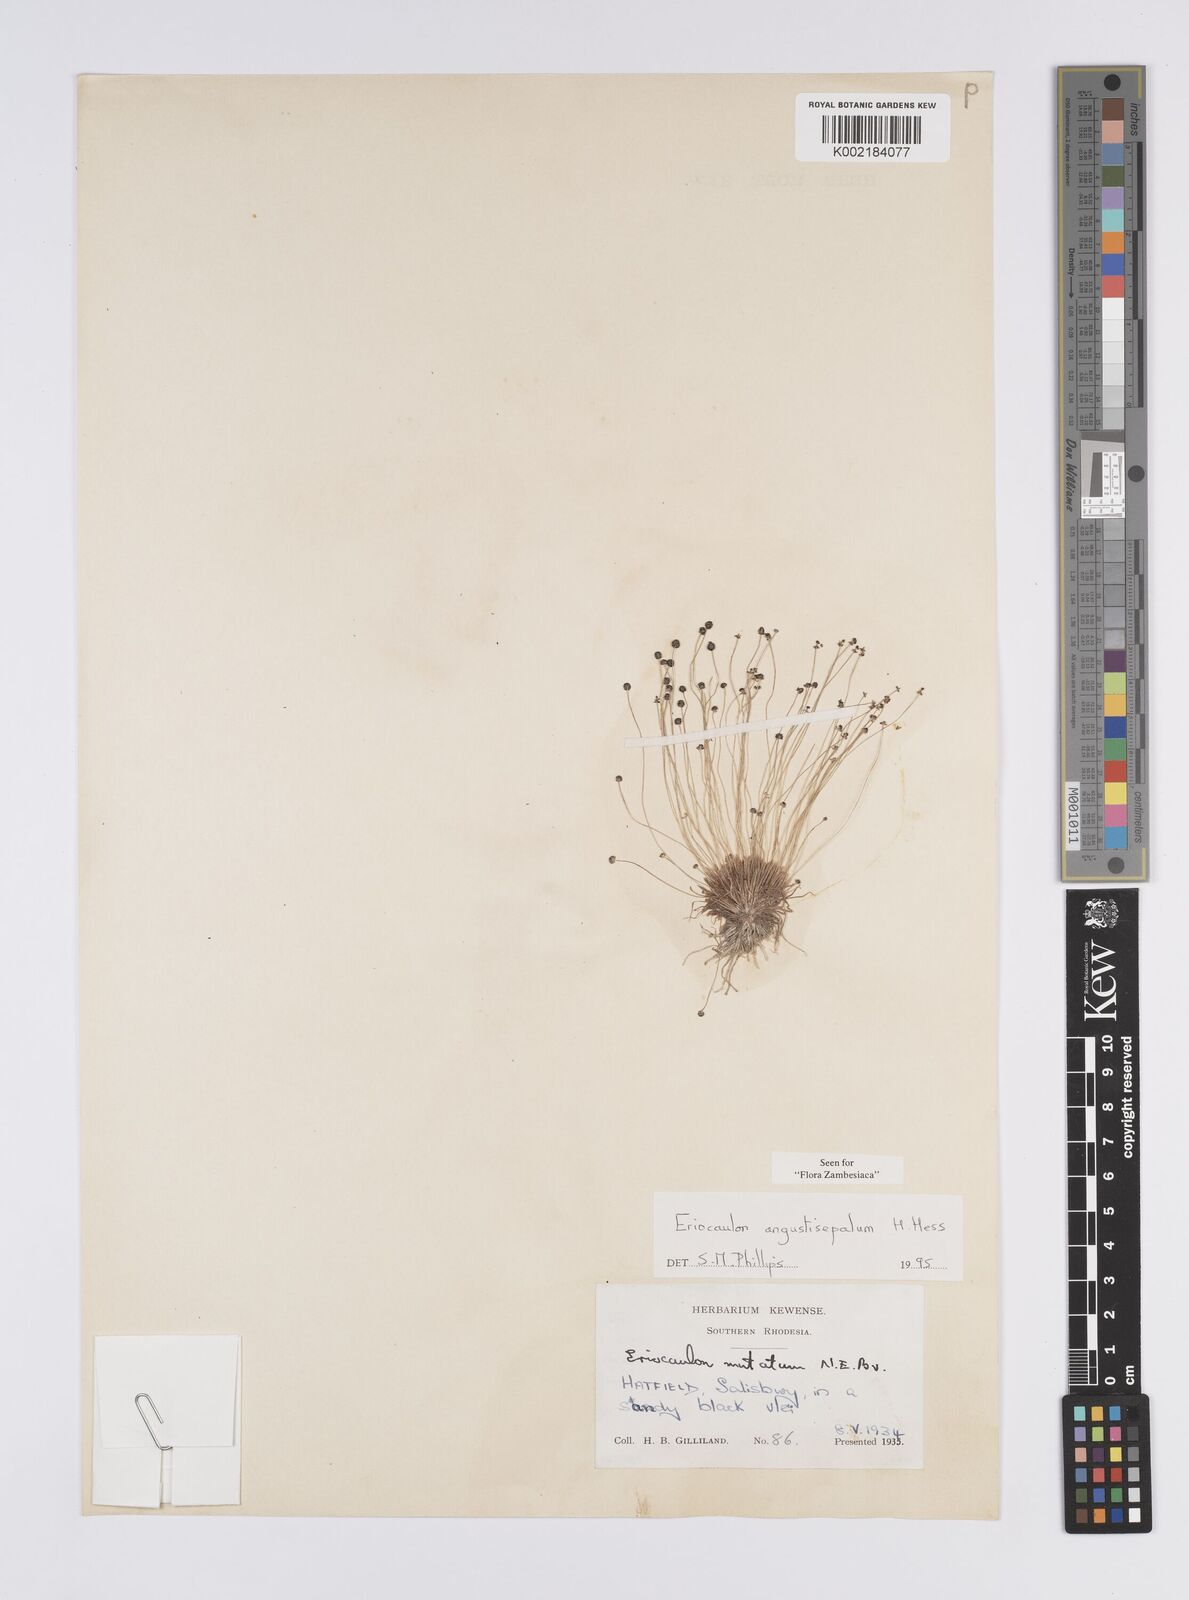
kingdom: Plantae
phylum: Tracheophyta
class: Liliopsida
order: Poales
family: Eriocaulaceae
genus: Eriocaulon
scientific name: Eriocaulon mutatum
